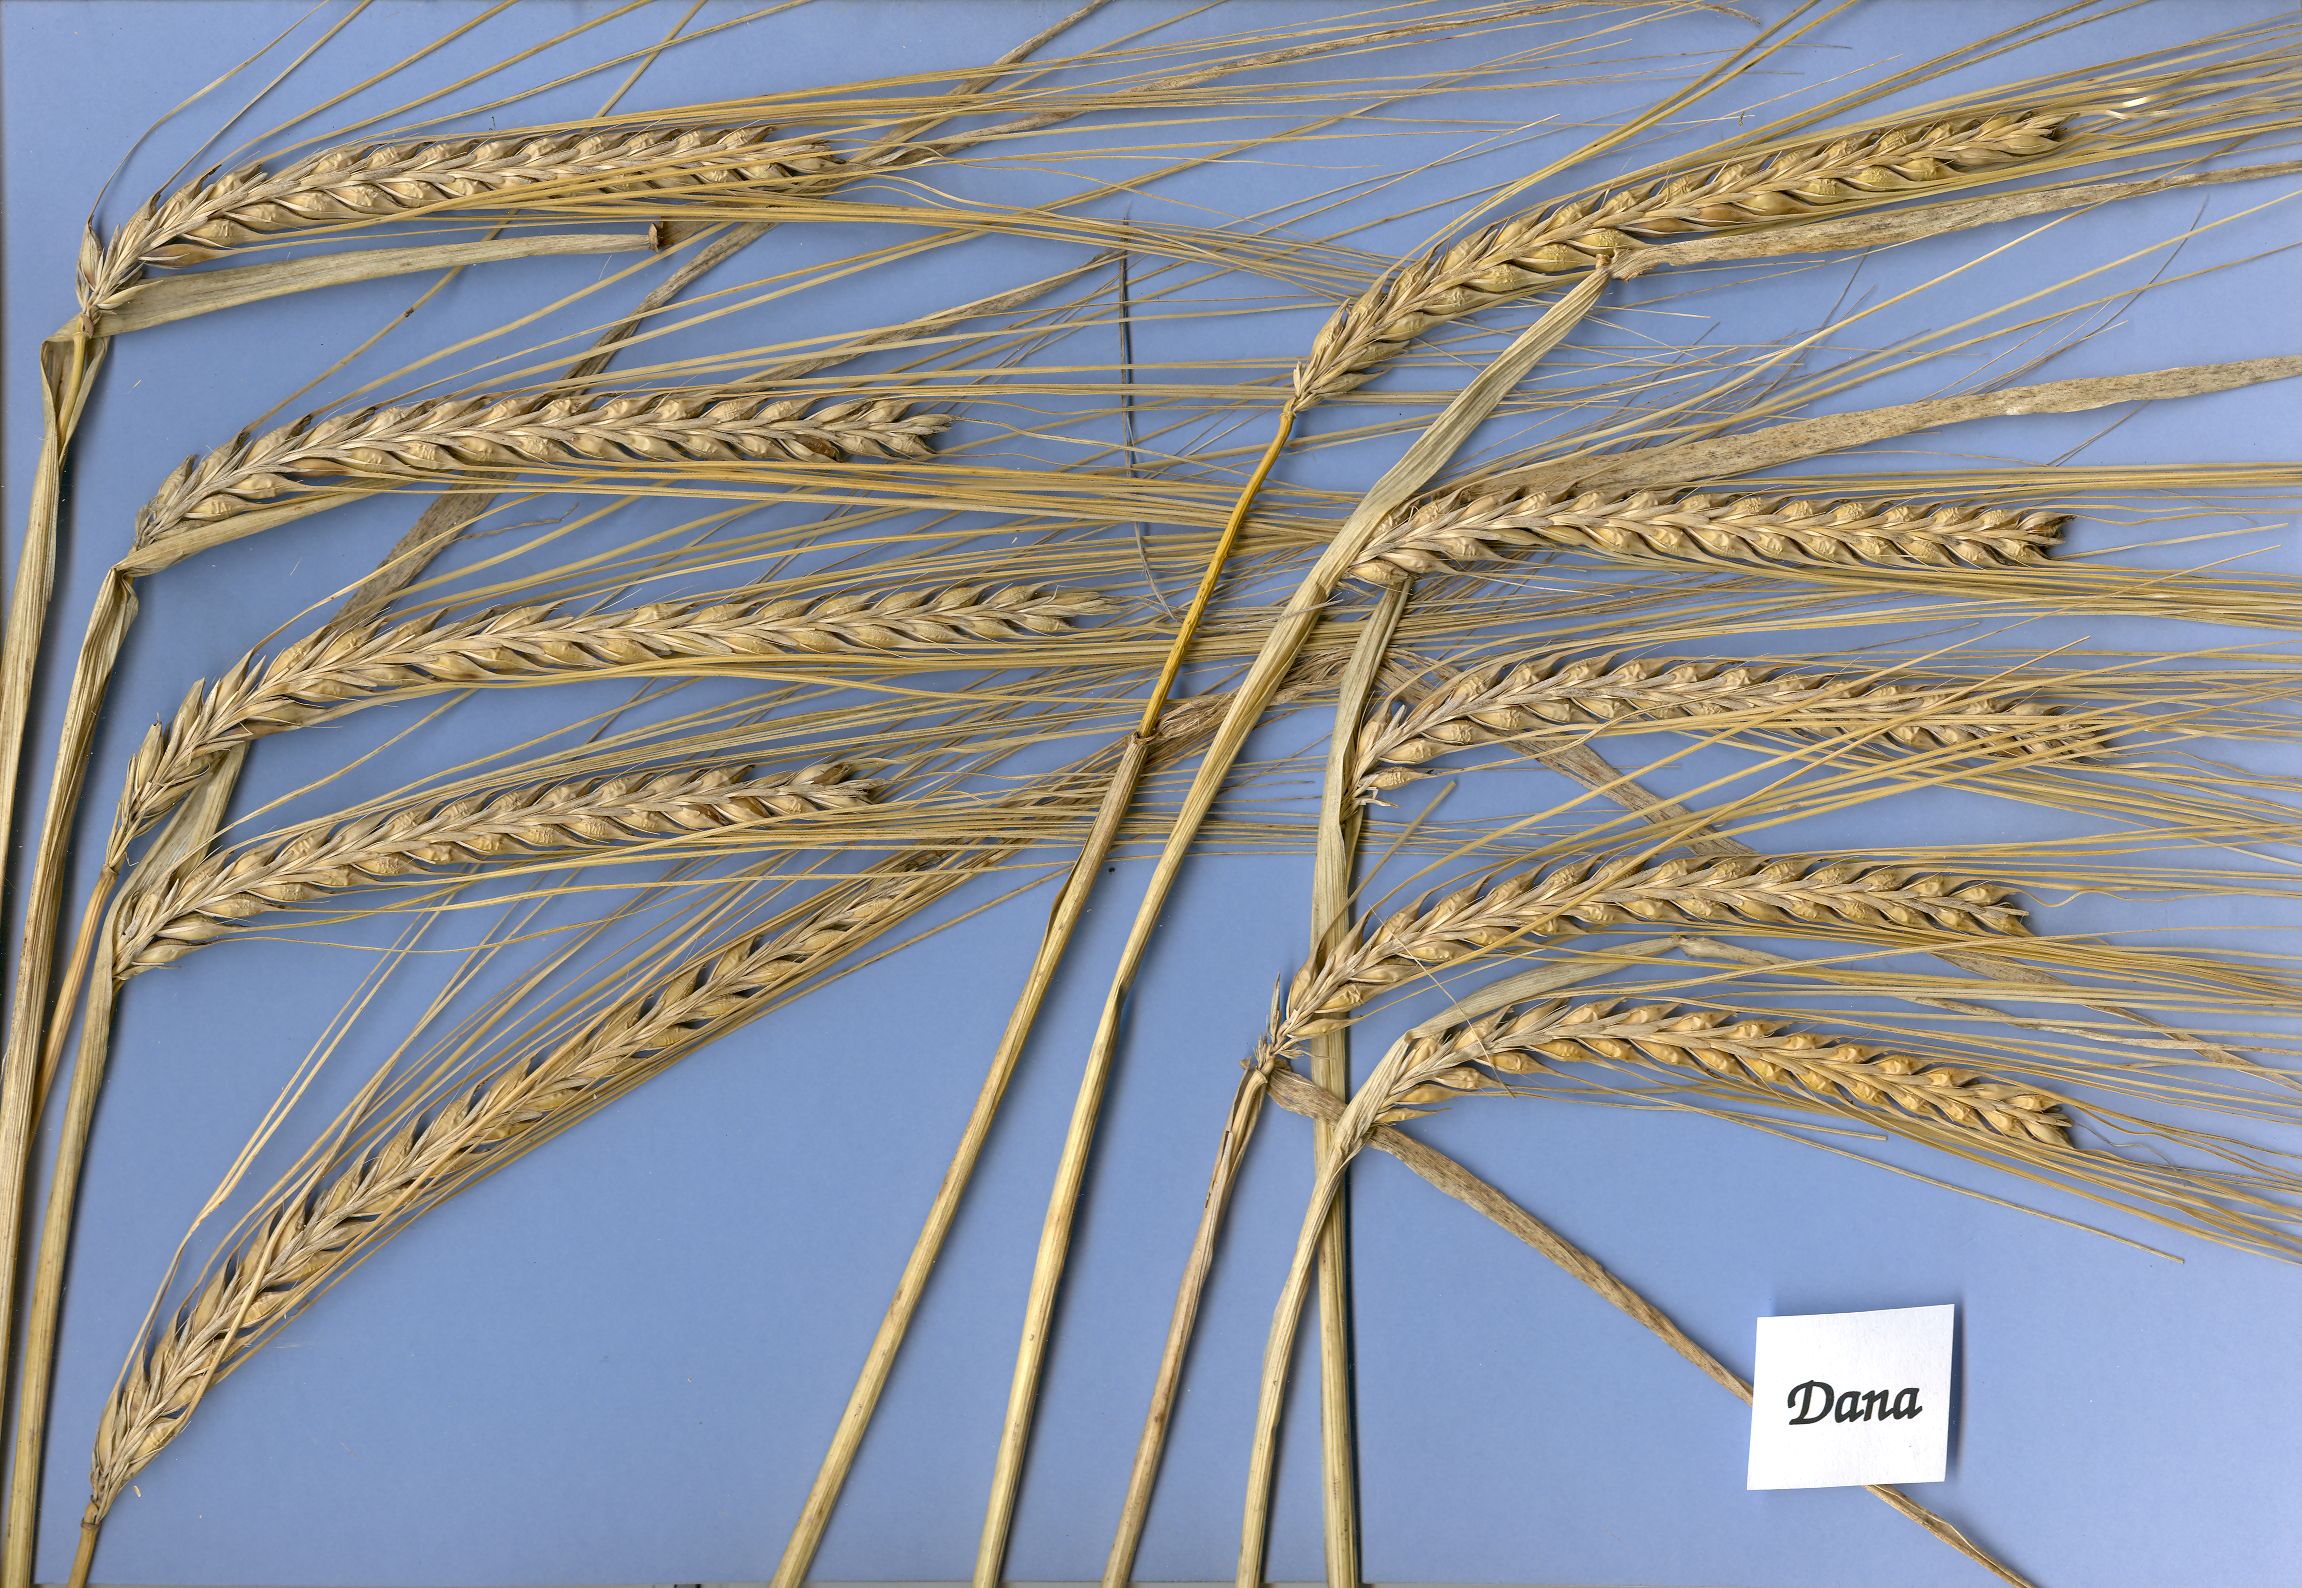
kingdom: Plantae
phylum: Tracheophyta
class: Liliopsida
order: Poales
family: Poaceae
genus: Hordeum
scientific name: Hordeum vulgare
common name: Common barley
